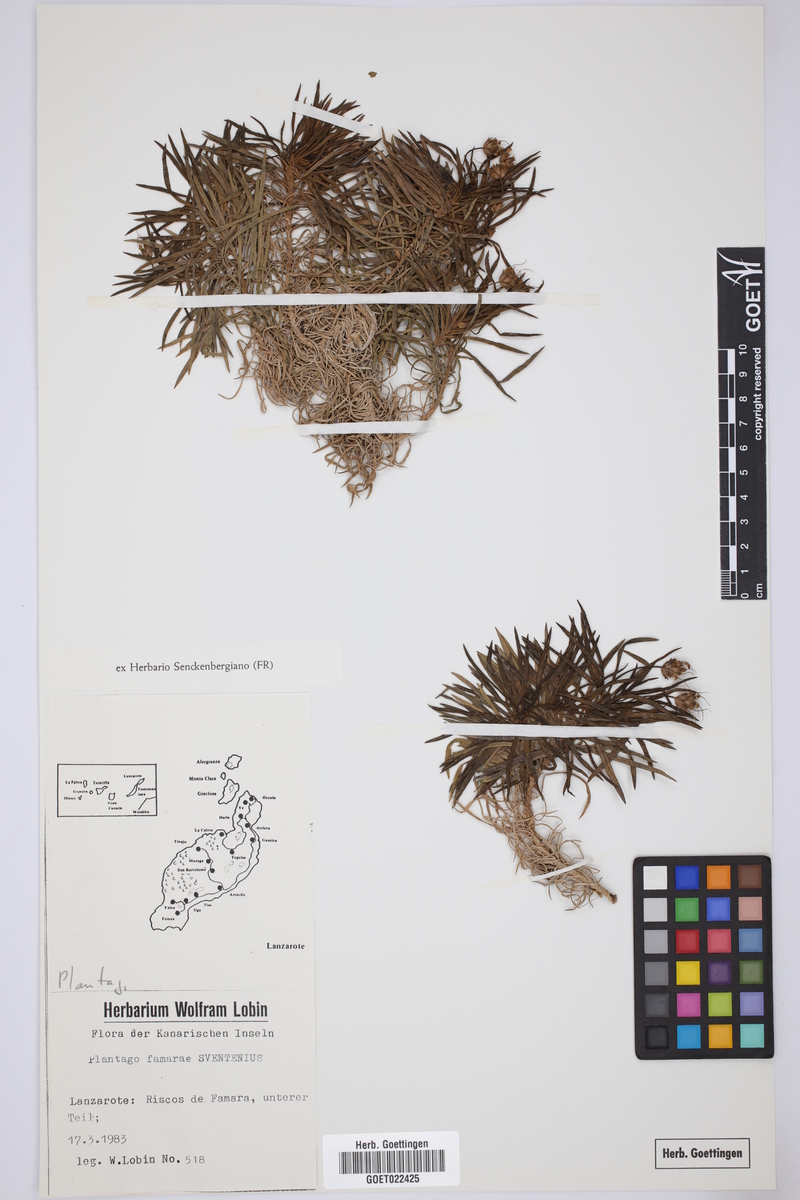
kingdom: Plantae
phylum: Tracheophyta
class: Magnoliopsida
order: Lamiales
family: Plantaginaceae
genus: Plantago
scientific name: Plantago famarae
